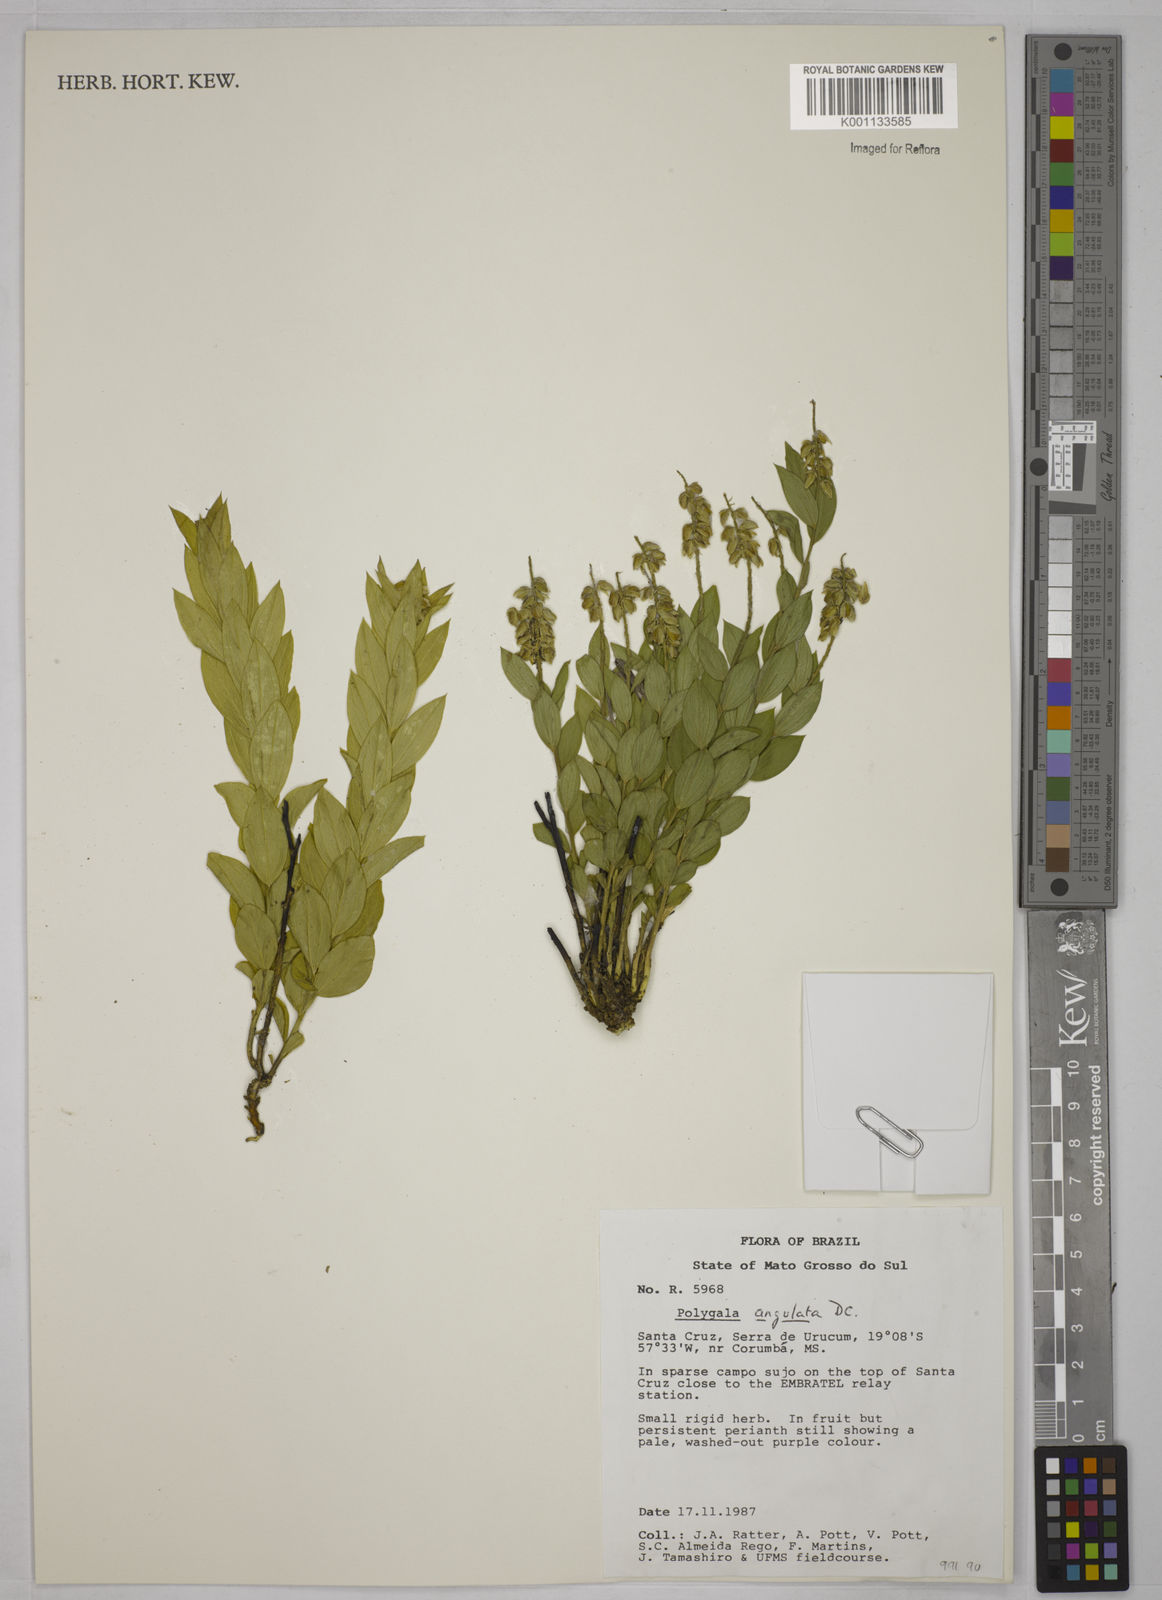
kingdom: Plantae
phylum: Tracheophyta
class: Magnoliopsida
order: Fabales
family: Polygalaceae
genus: Polygala
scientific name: Polygala poaya
